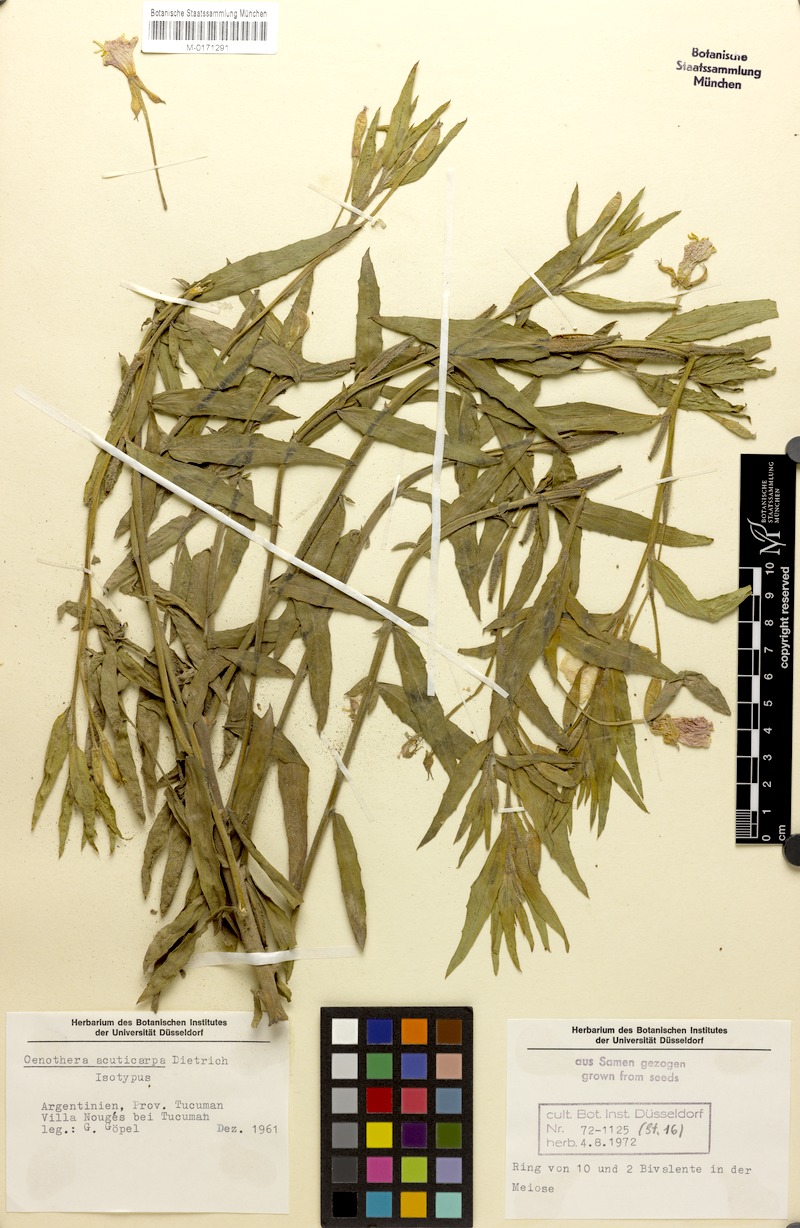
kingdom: Plantae
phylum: Tracheophyta
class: Magnoliopsida
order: Myrtales
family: Onagraceae
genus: Oenothera
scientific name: Oenothera siambonensis
